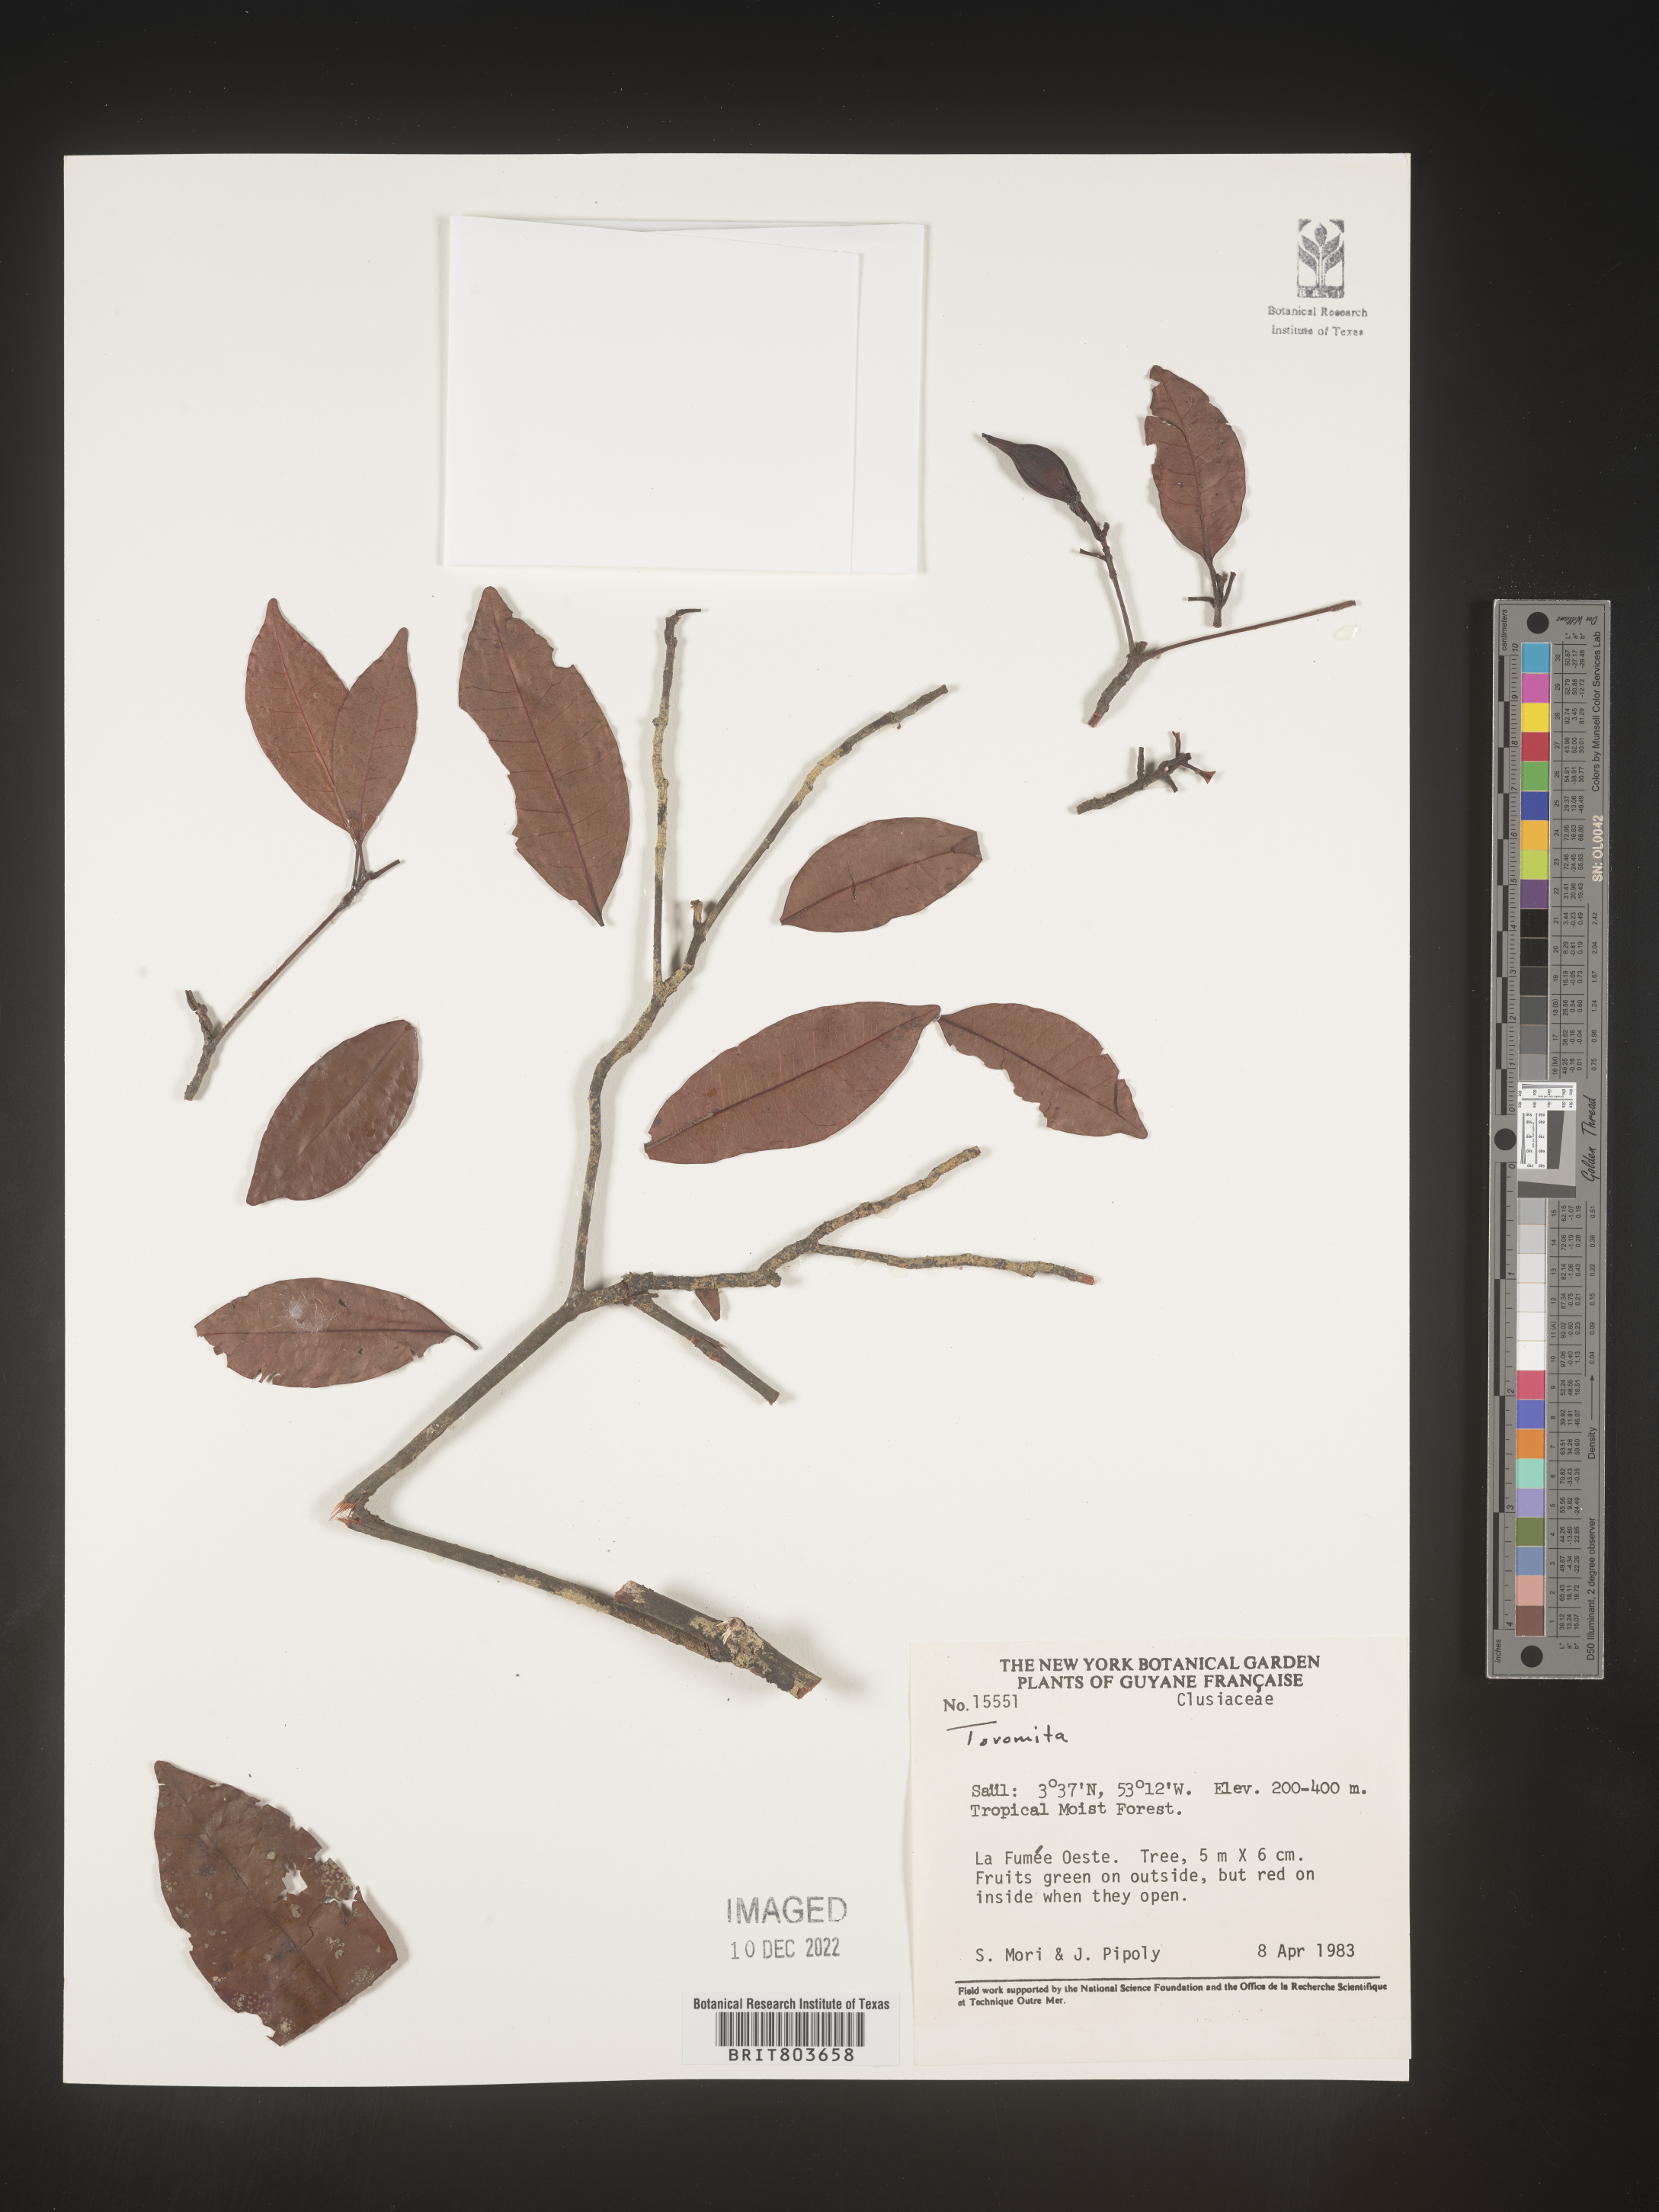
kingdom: Plantae
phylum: Tracheophyta
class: Magnoliopsida
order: Malpighiales
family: Clusiaceae
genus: Tovomita
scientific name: Tovomita
